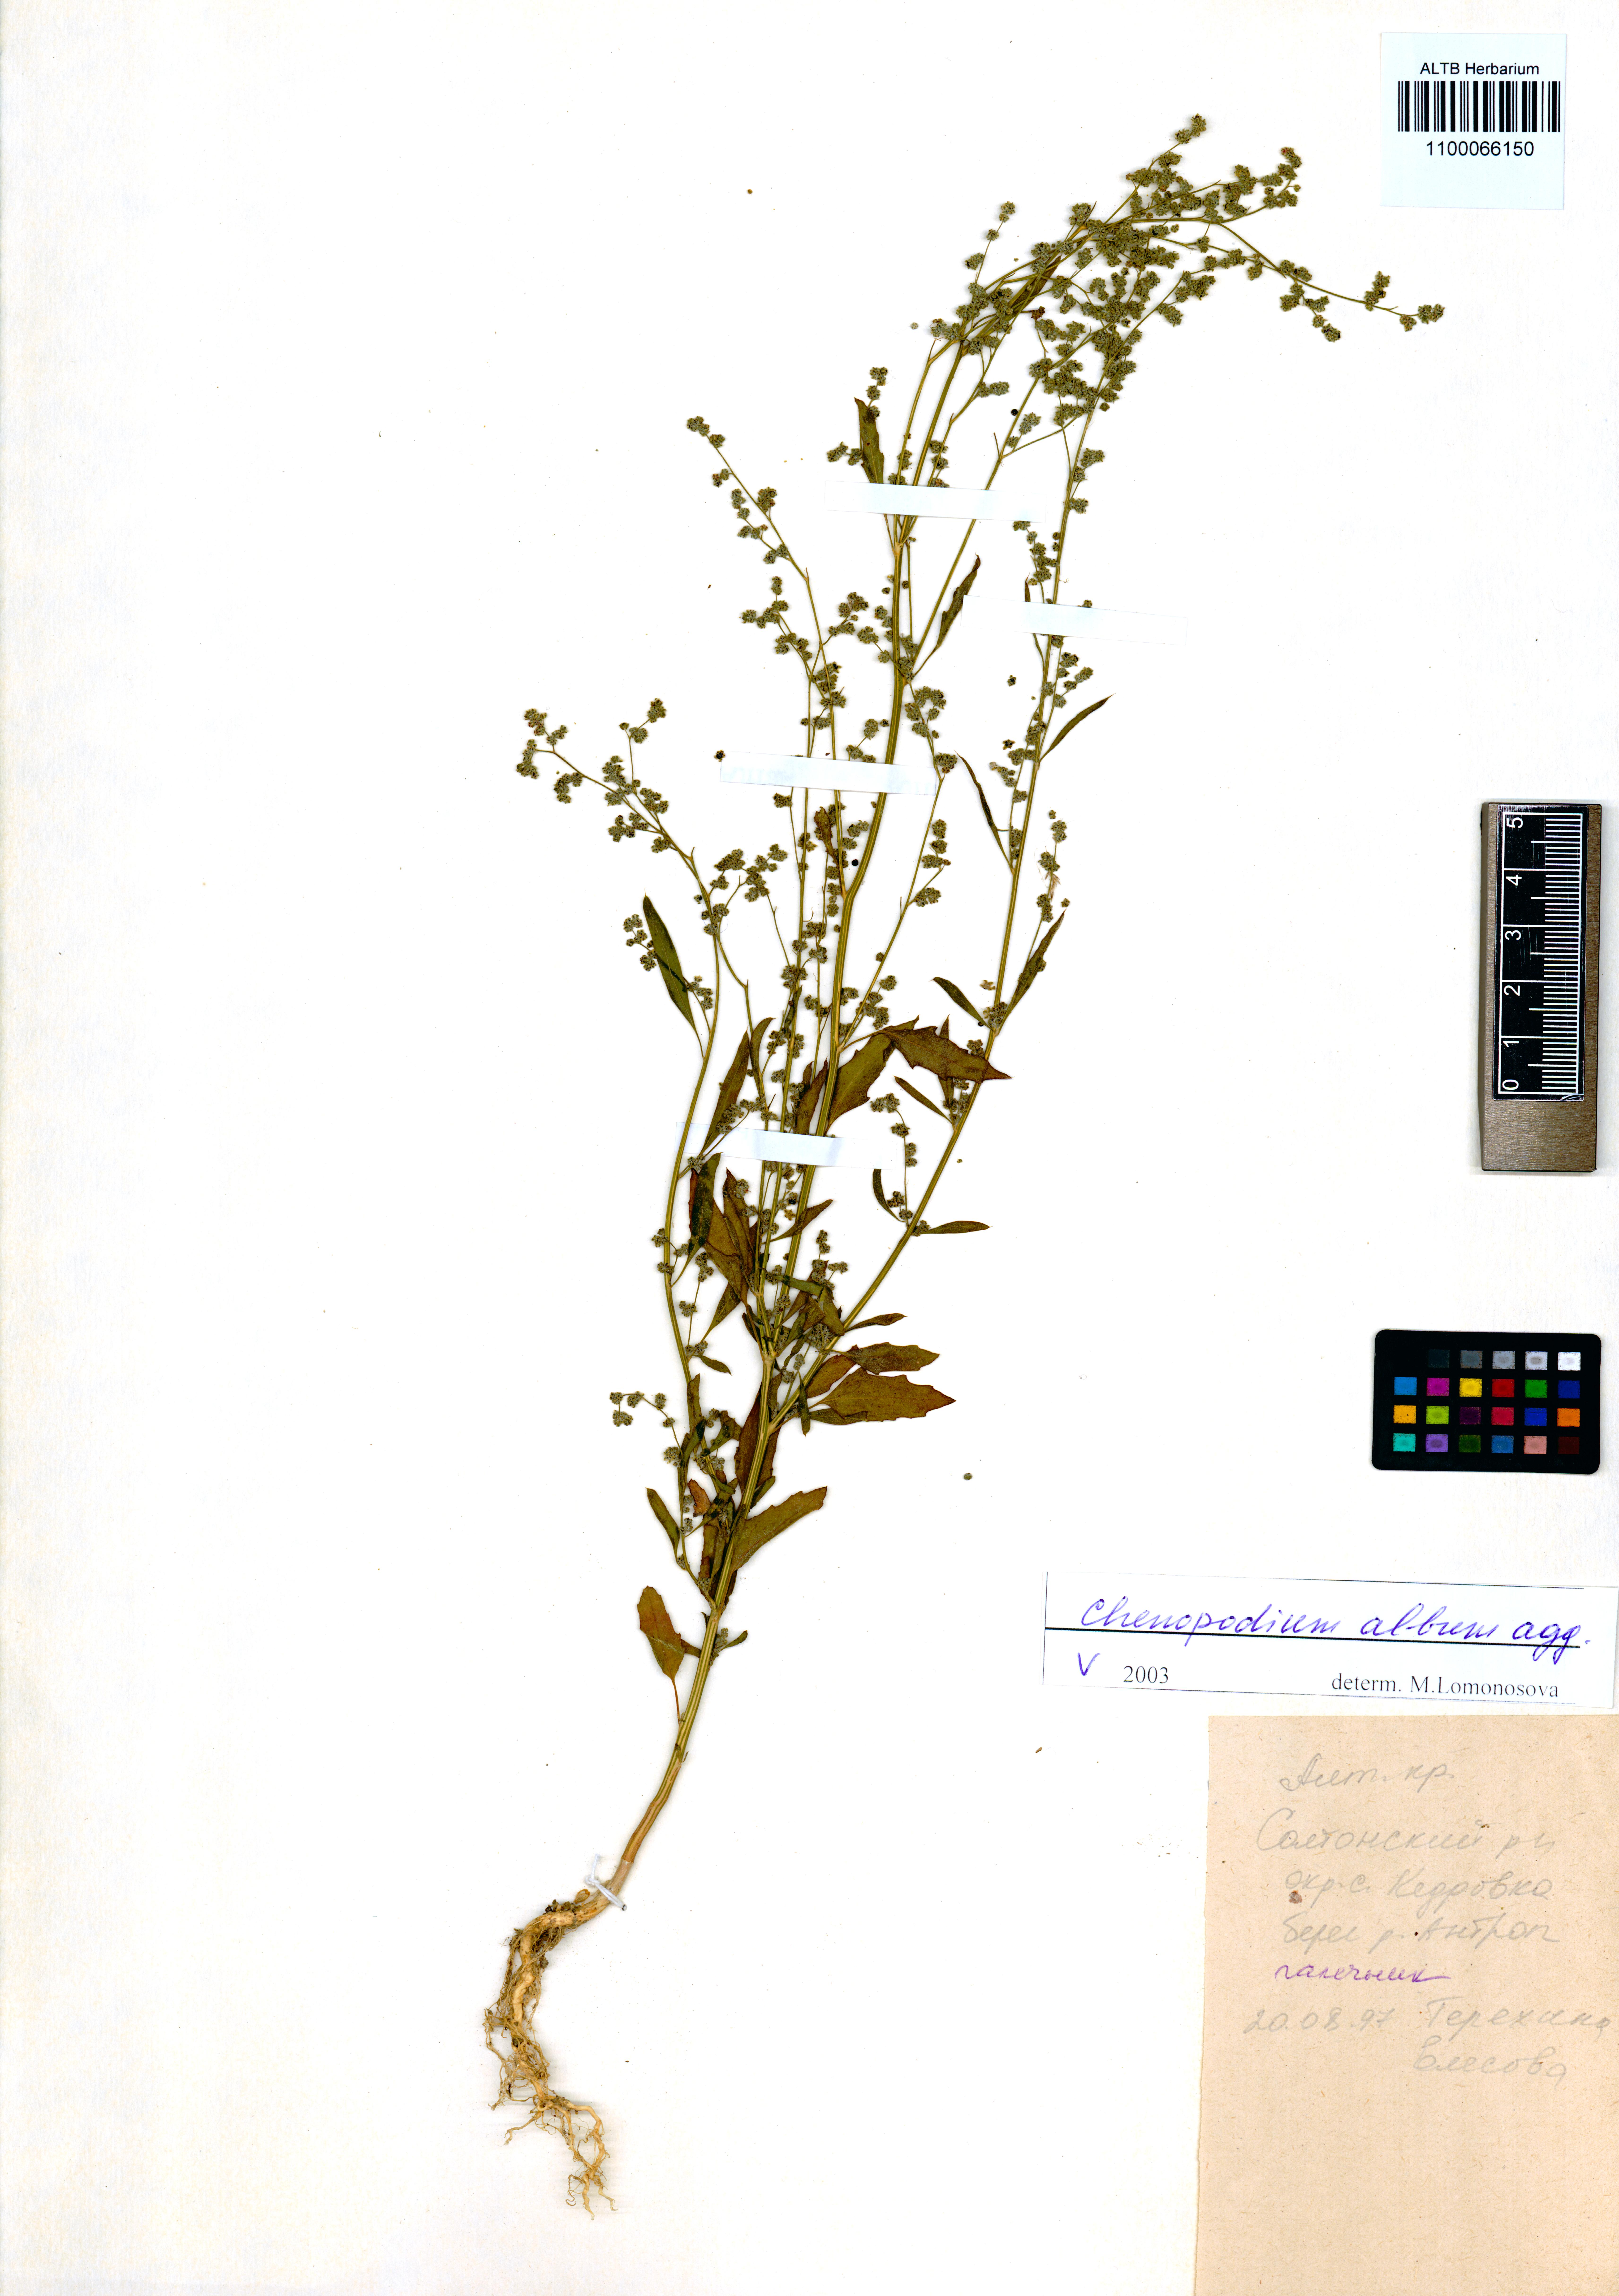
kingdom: Plantae
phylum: Tracheophyta
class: Magnoliopsida
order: Caryophyllales
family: Amaranthaceae
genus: Chenopodium
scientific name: Chenopodium album
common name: Fat-hen
